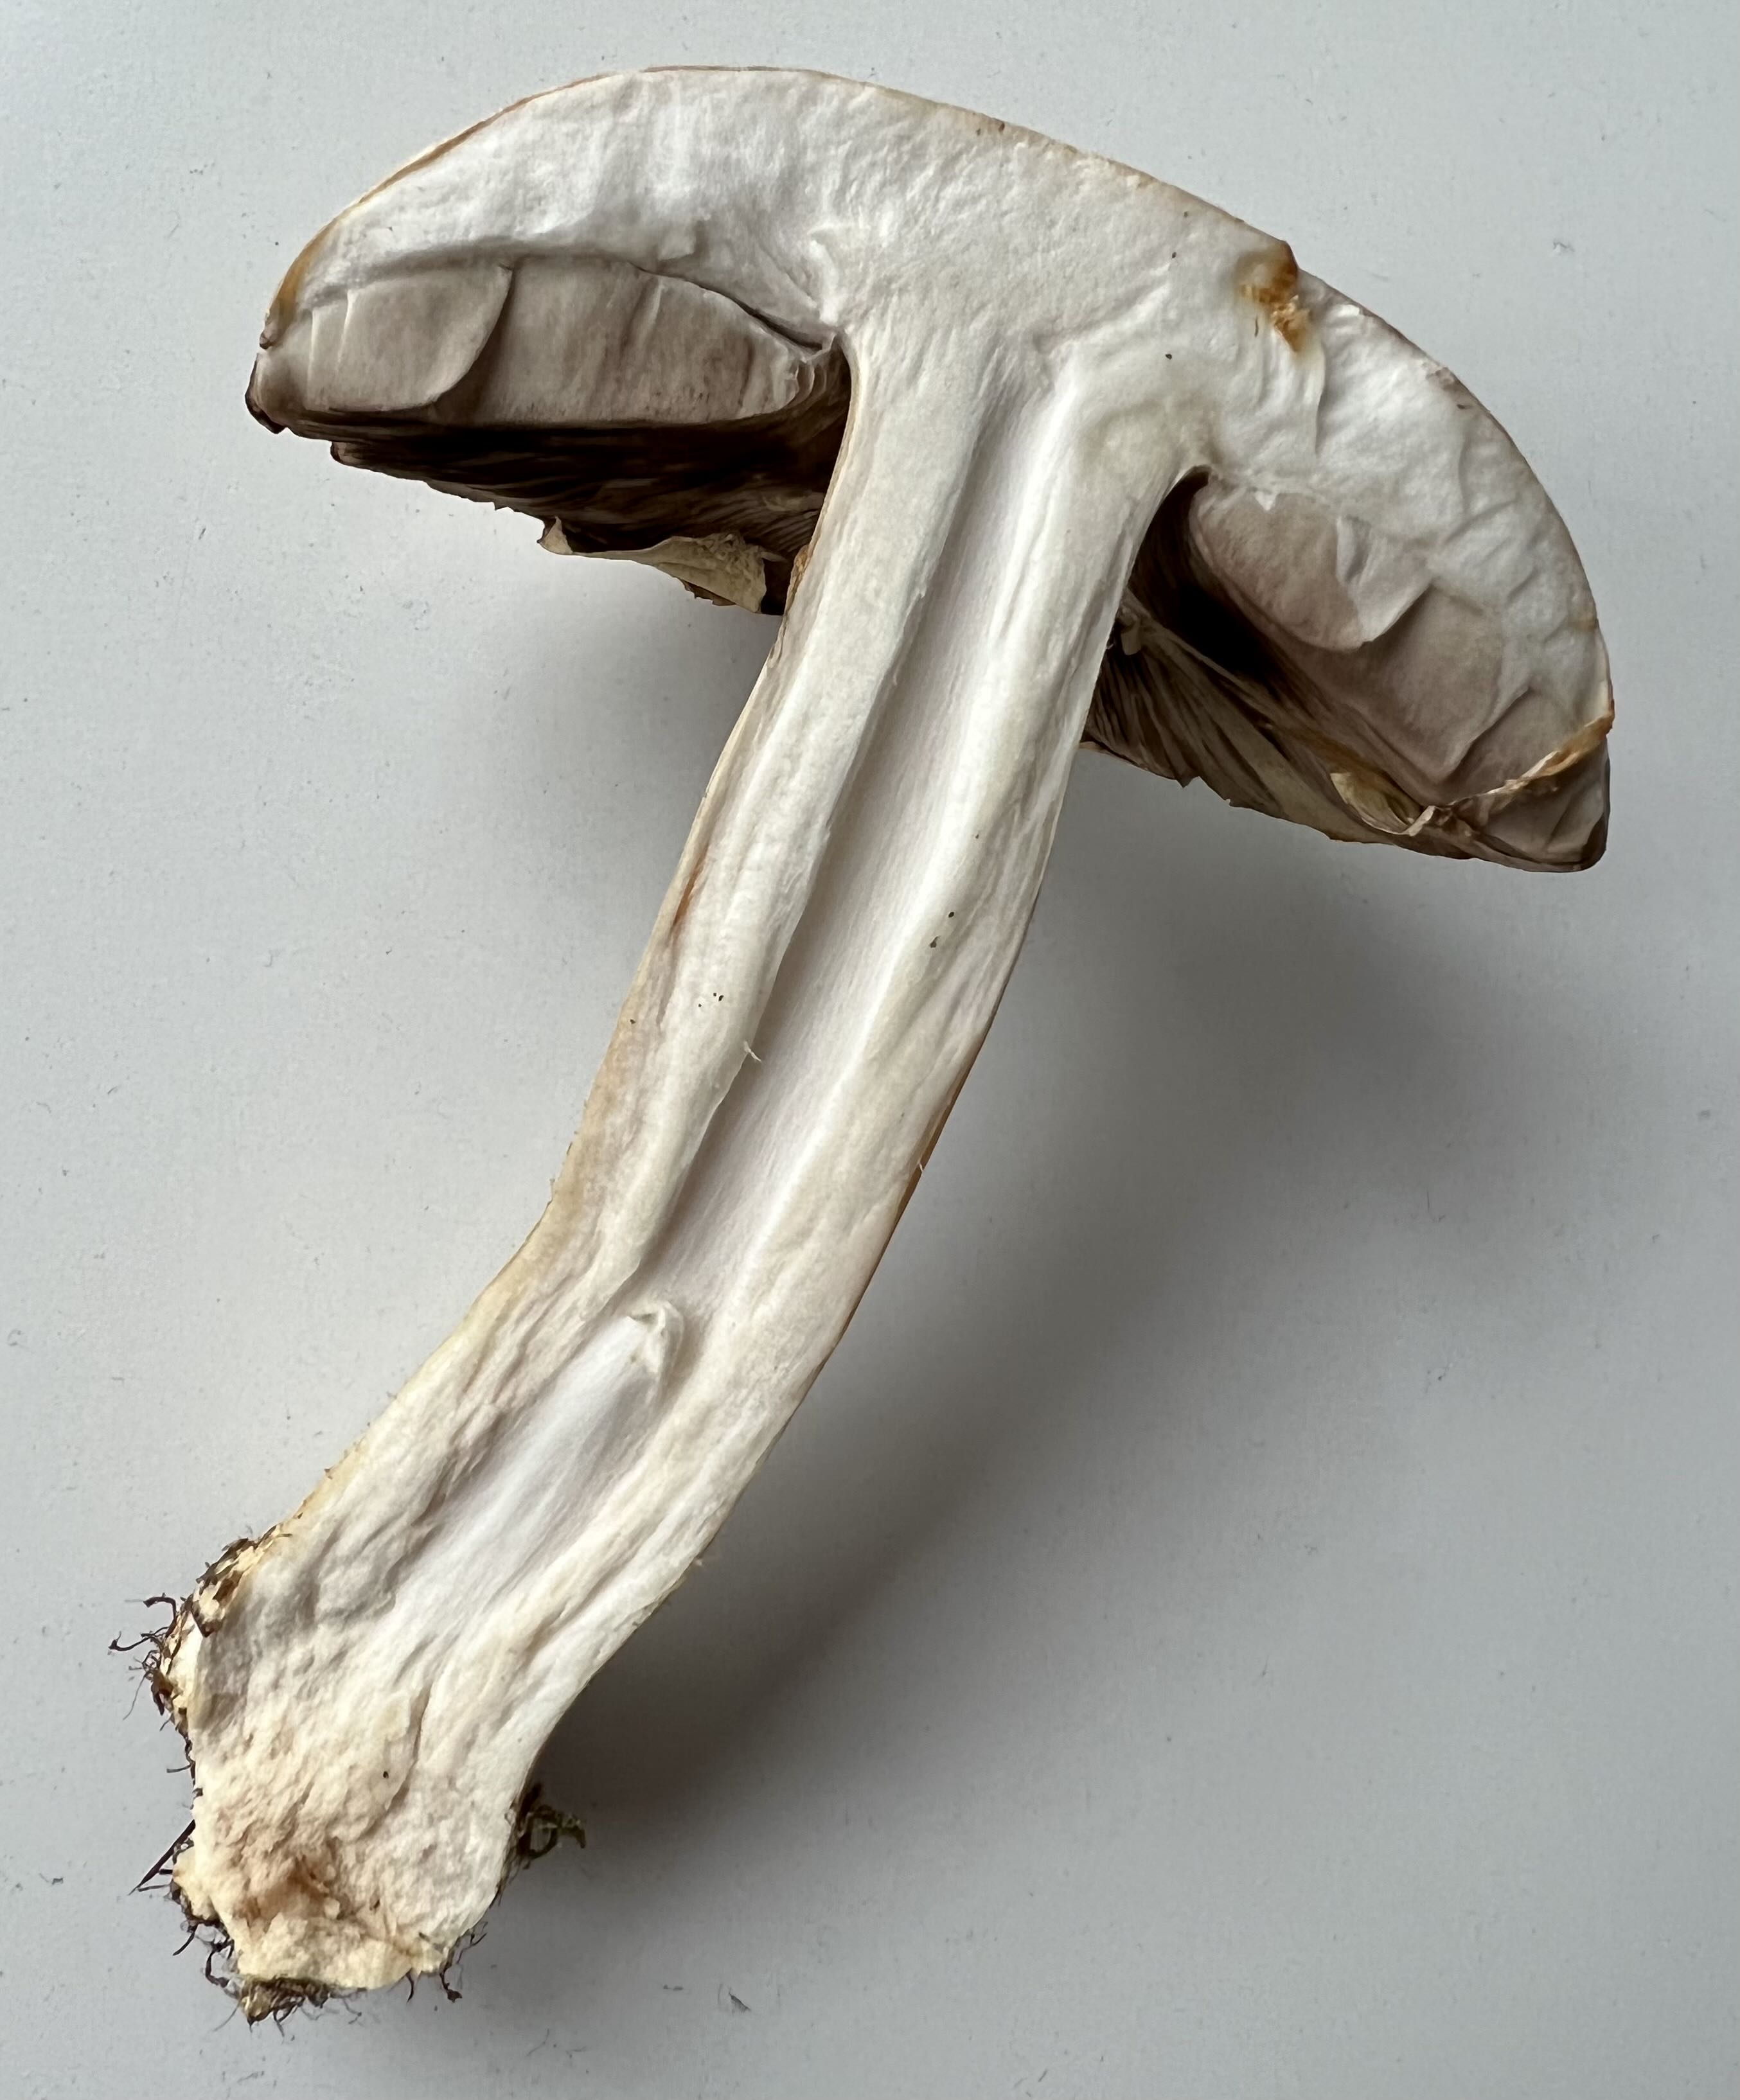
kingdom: Fungi
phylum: Basidiomycota
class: Agaricomycetes
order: Agaricales
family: Agaricaceae
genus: Agaricus
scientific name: Agaricus
